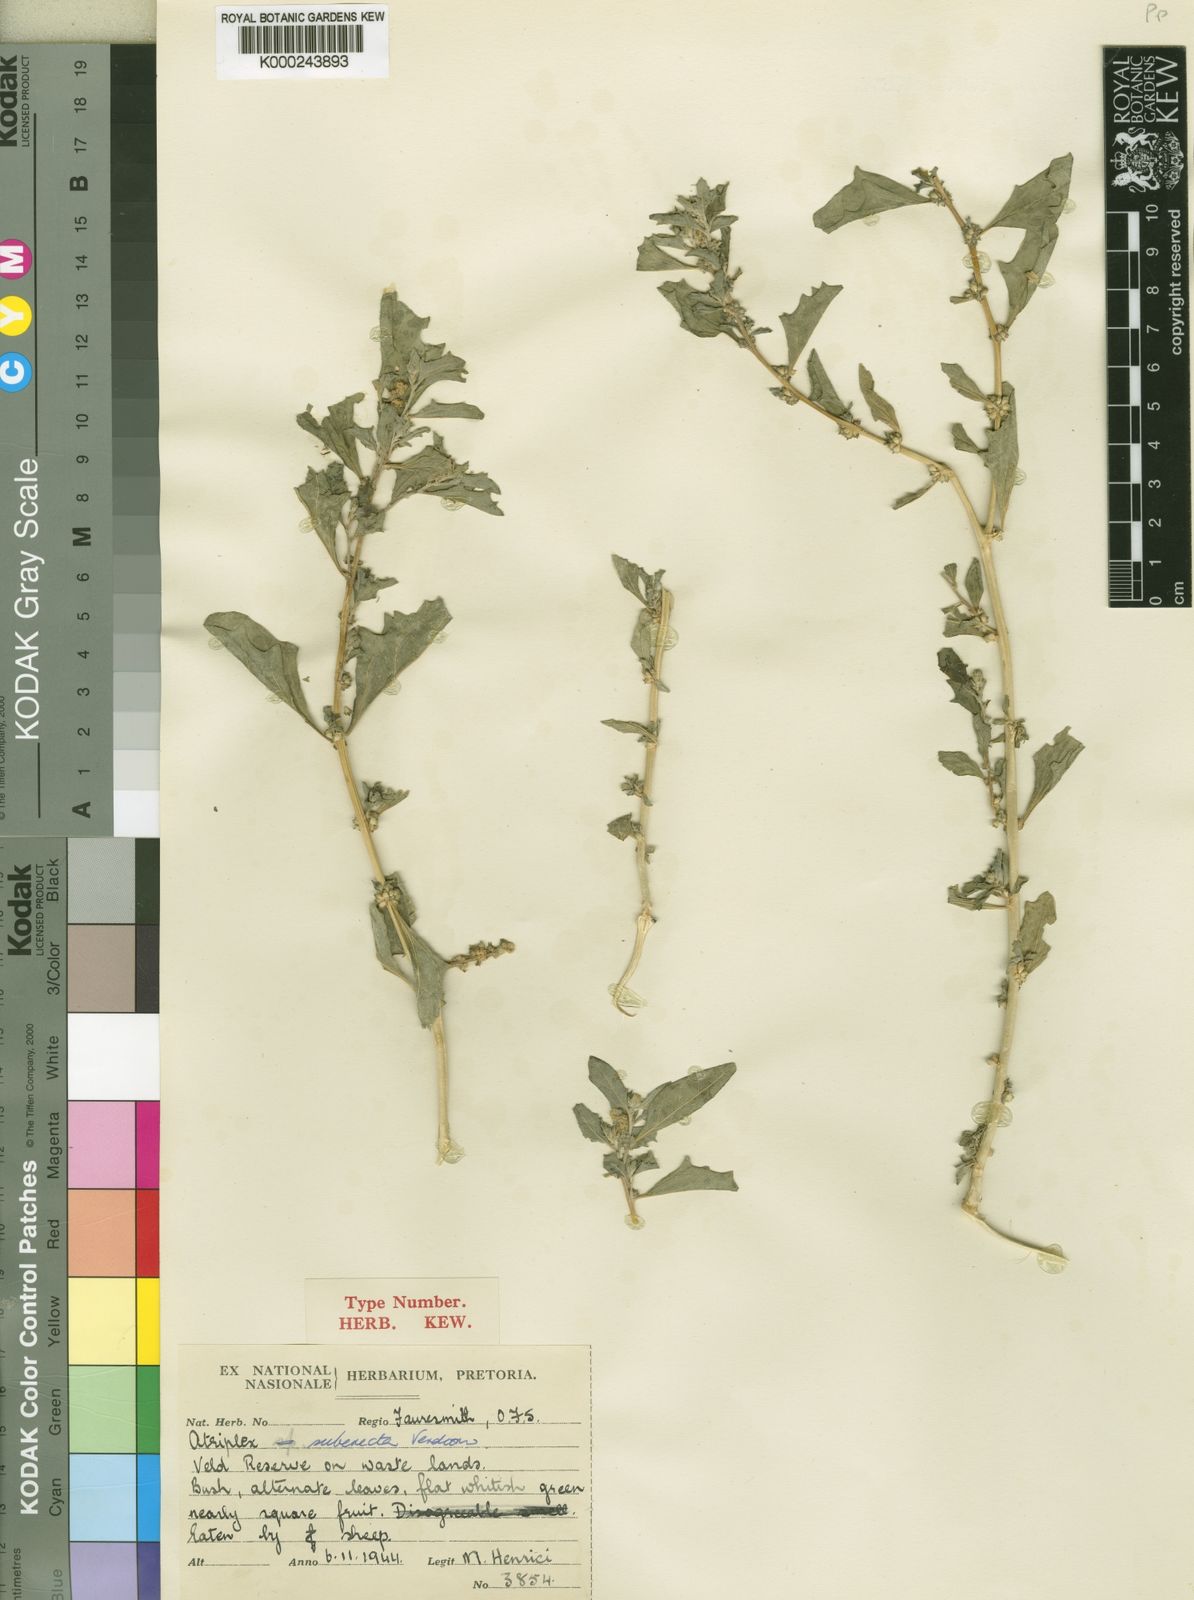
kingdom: Plantae
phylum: Tracheophyta
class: Magnoliopsida
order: Caryophyllales
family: Amaranthaceae
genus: Atriplex
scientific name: Atriplex suberecta
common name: Australian orache
